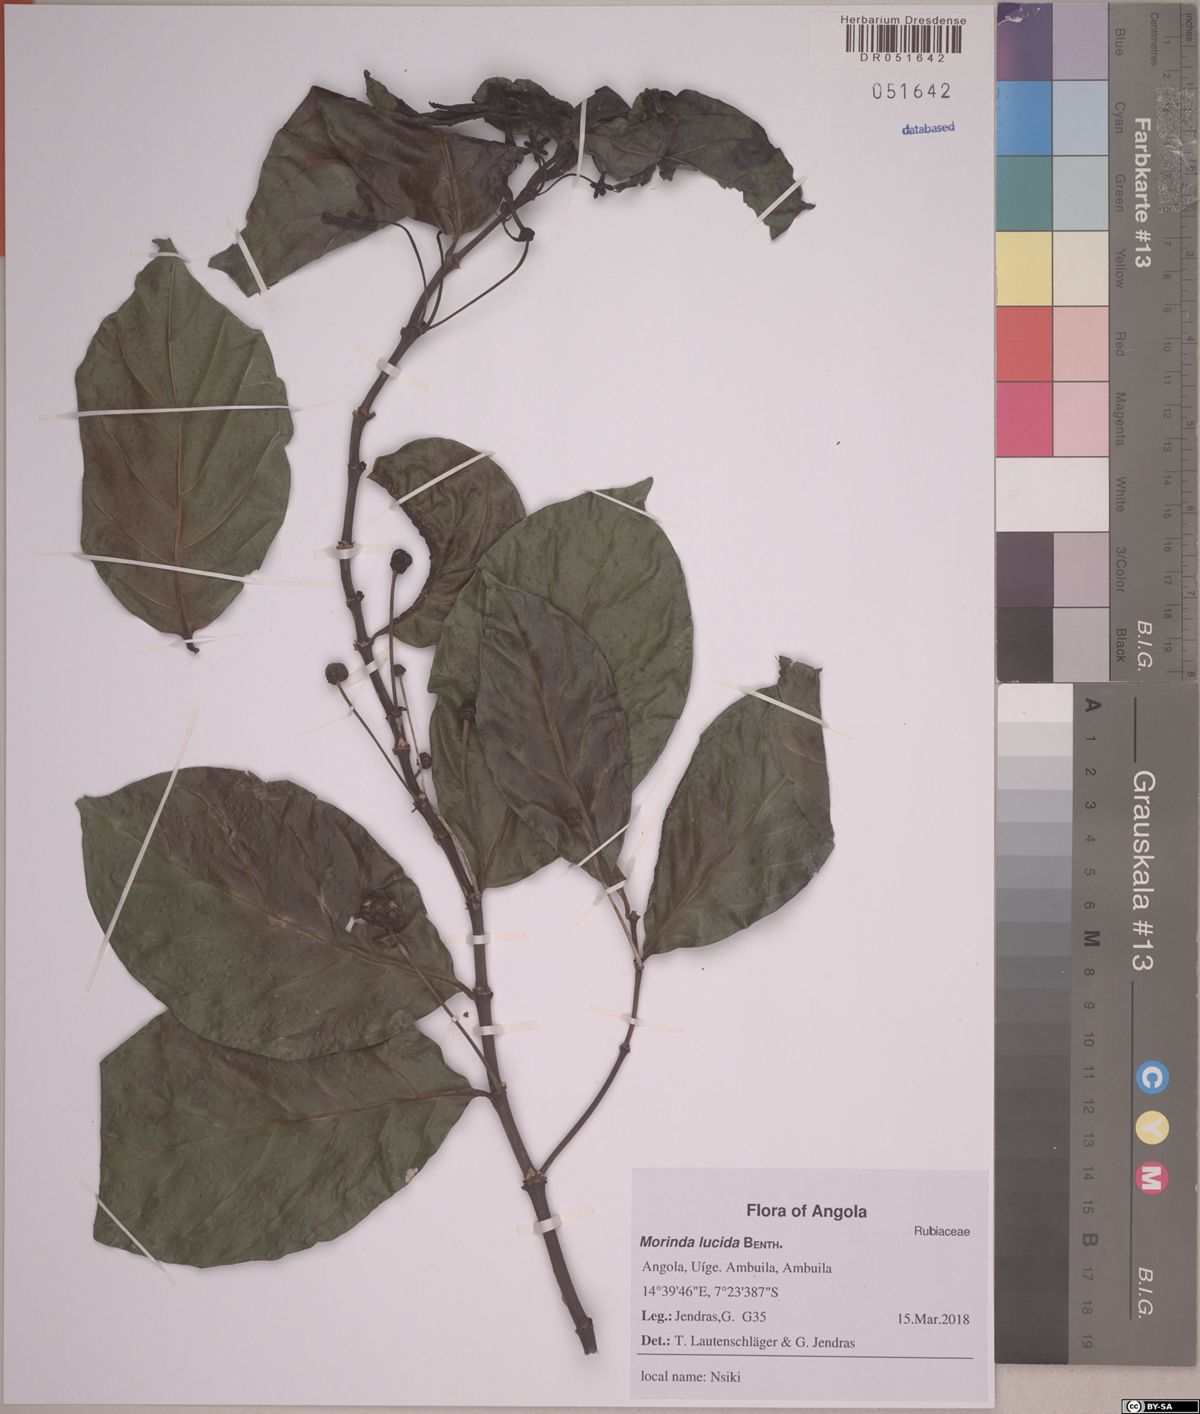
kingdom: Plantae
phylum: Tracheophyta
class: Magnoliopsida
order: Gentianales
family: Rubiaceae
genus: Morinda
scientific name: Morinda lucida
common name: Brimstonetree
